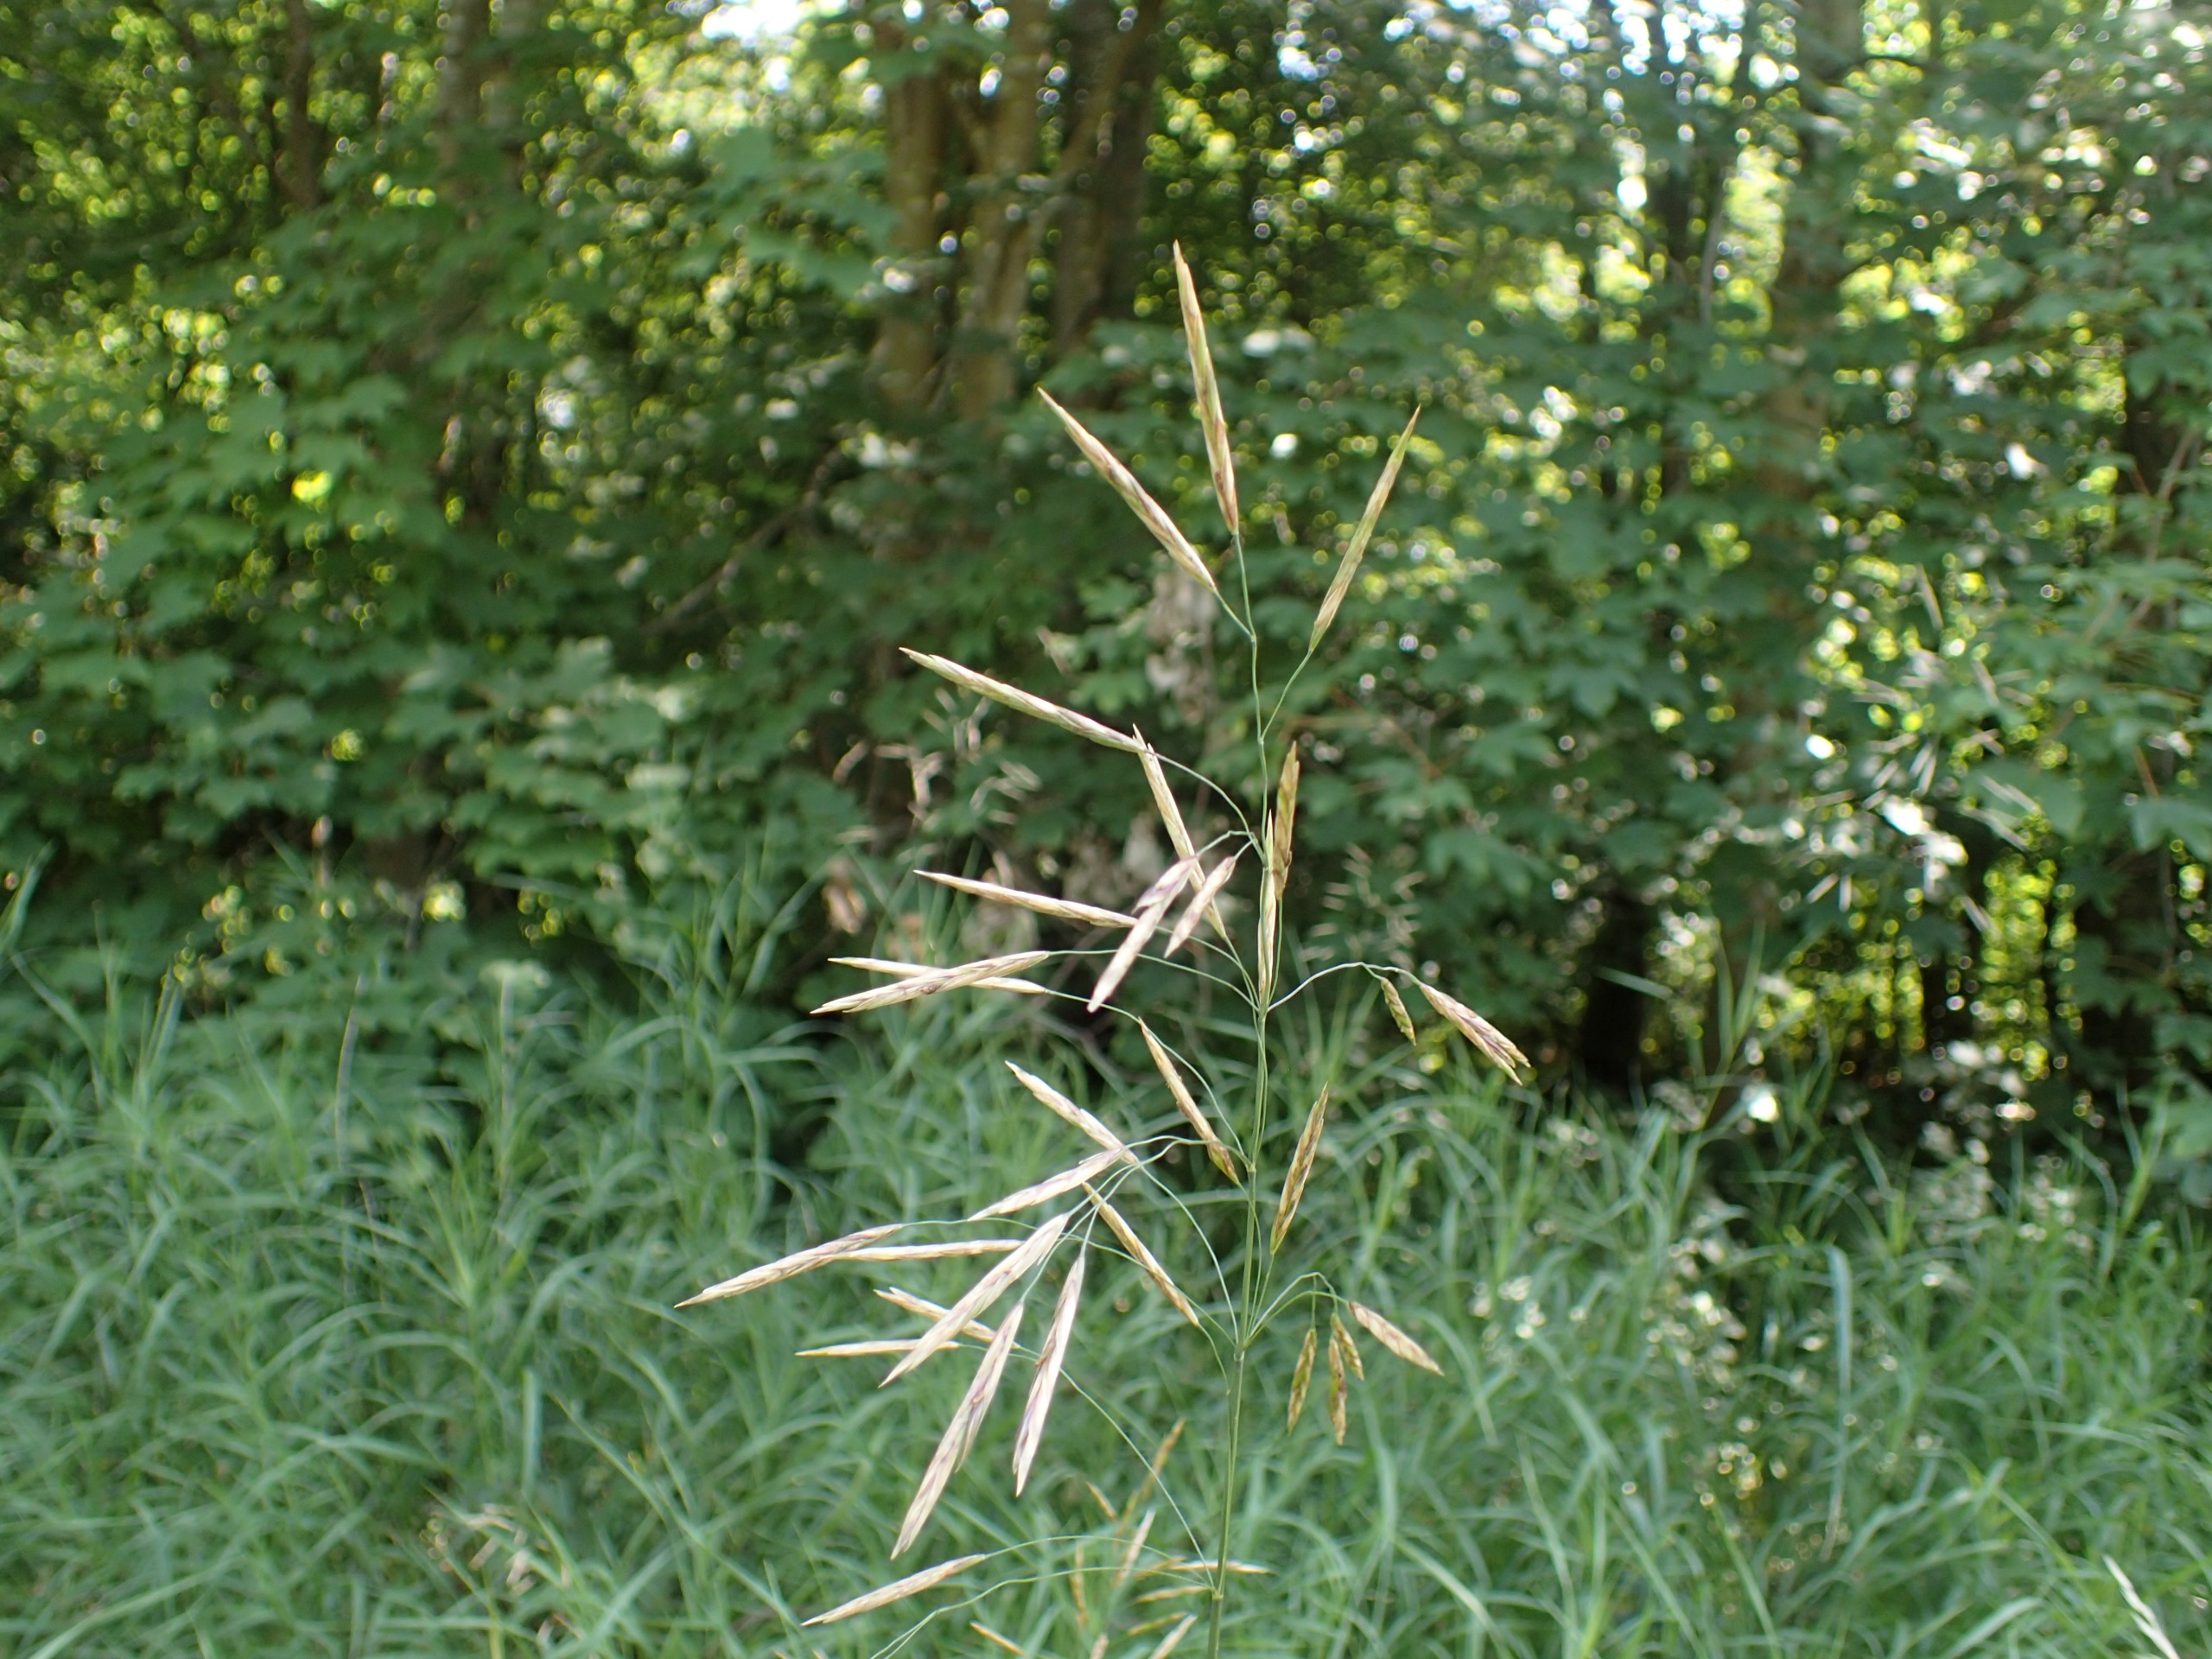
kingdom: Plantae
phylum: Tracheophyta
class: Liliopsida
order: Poales
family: Poaceae
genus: Bromus
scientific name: Bromus inermis
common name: Stakløs hejre
